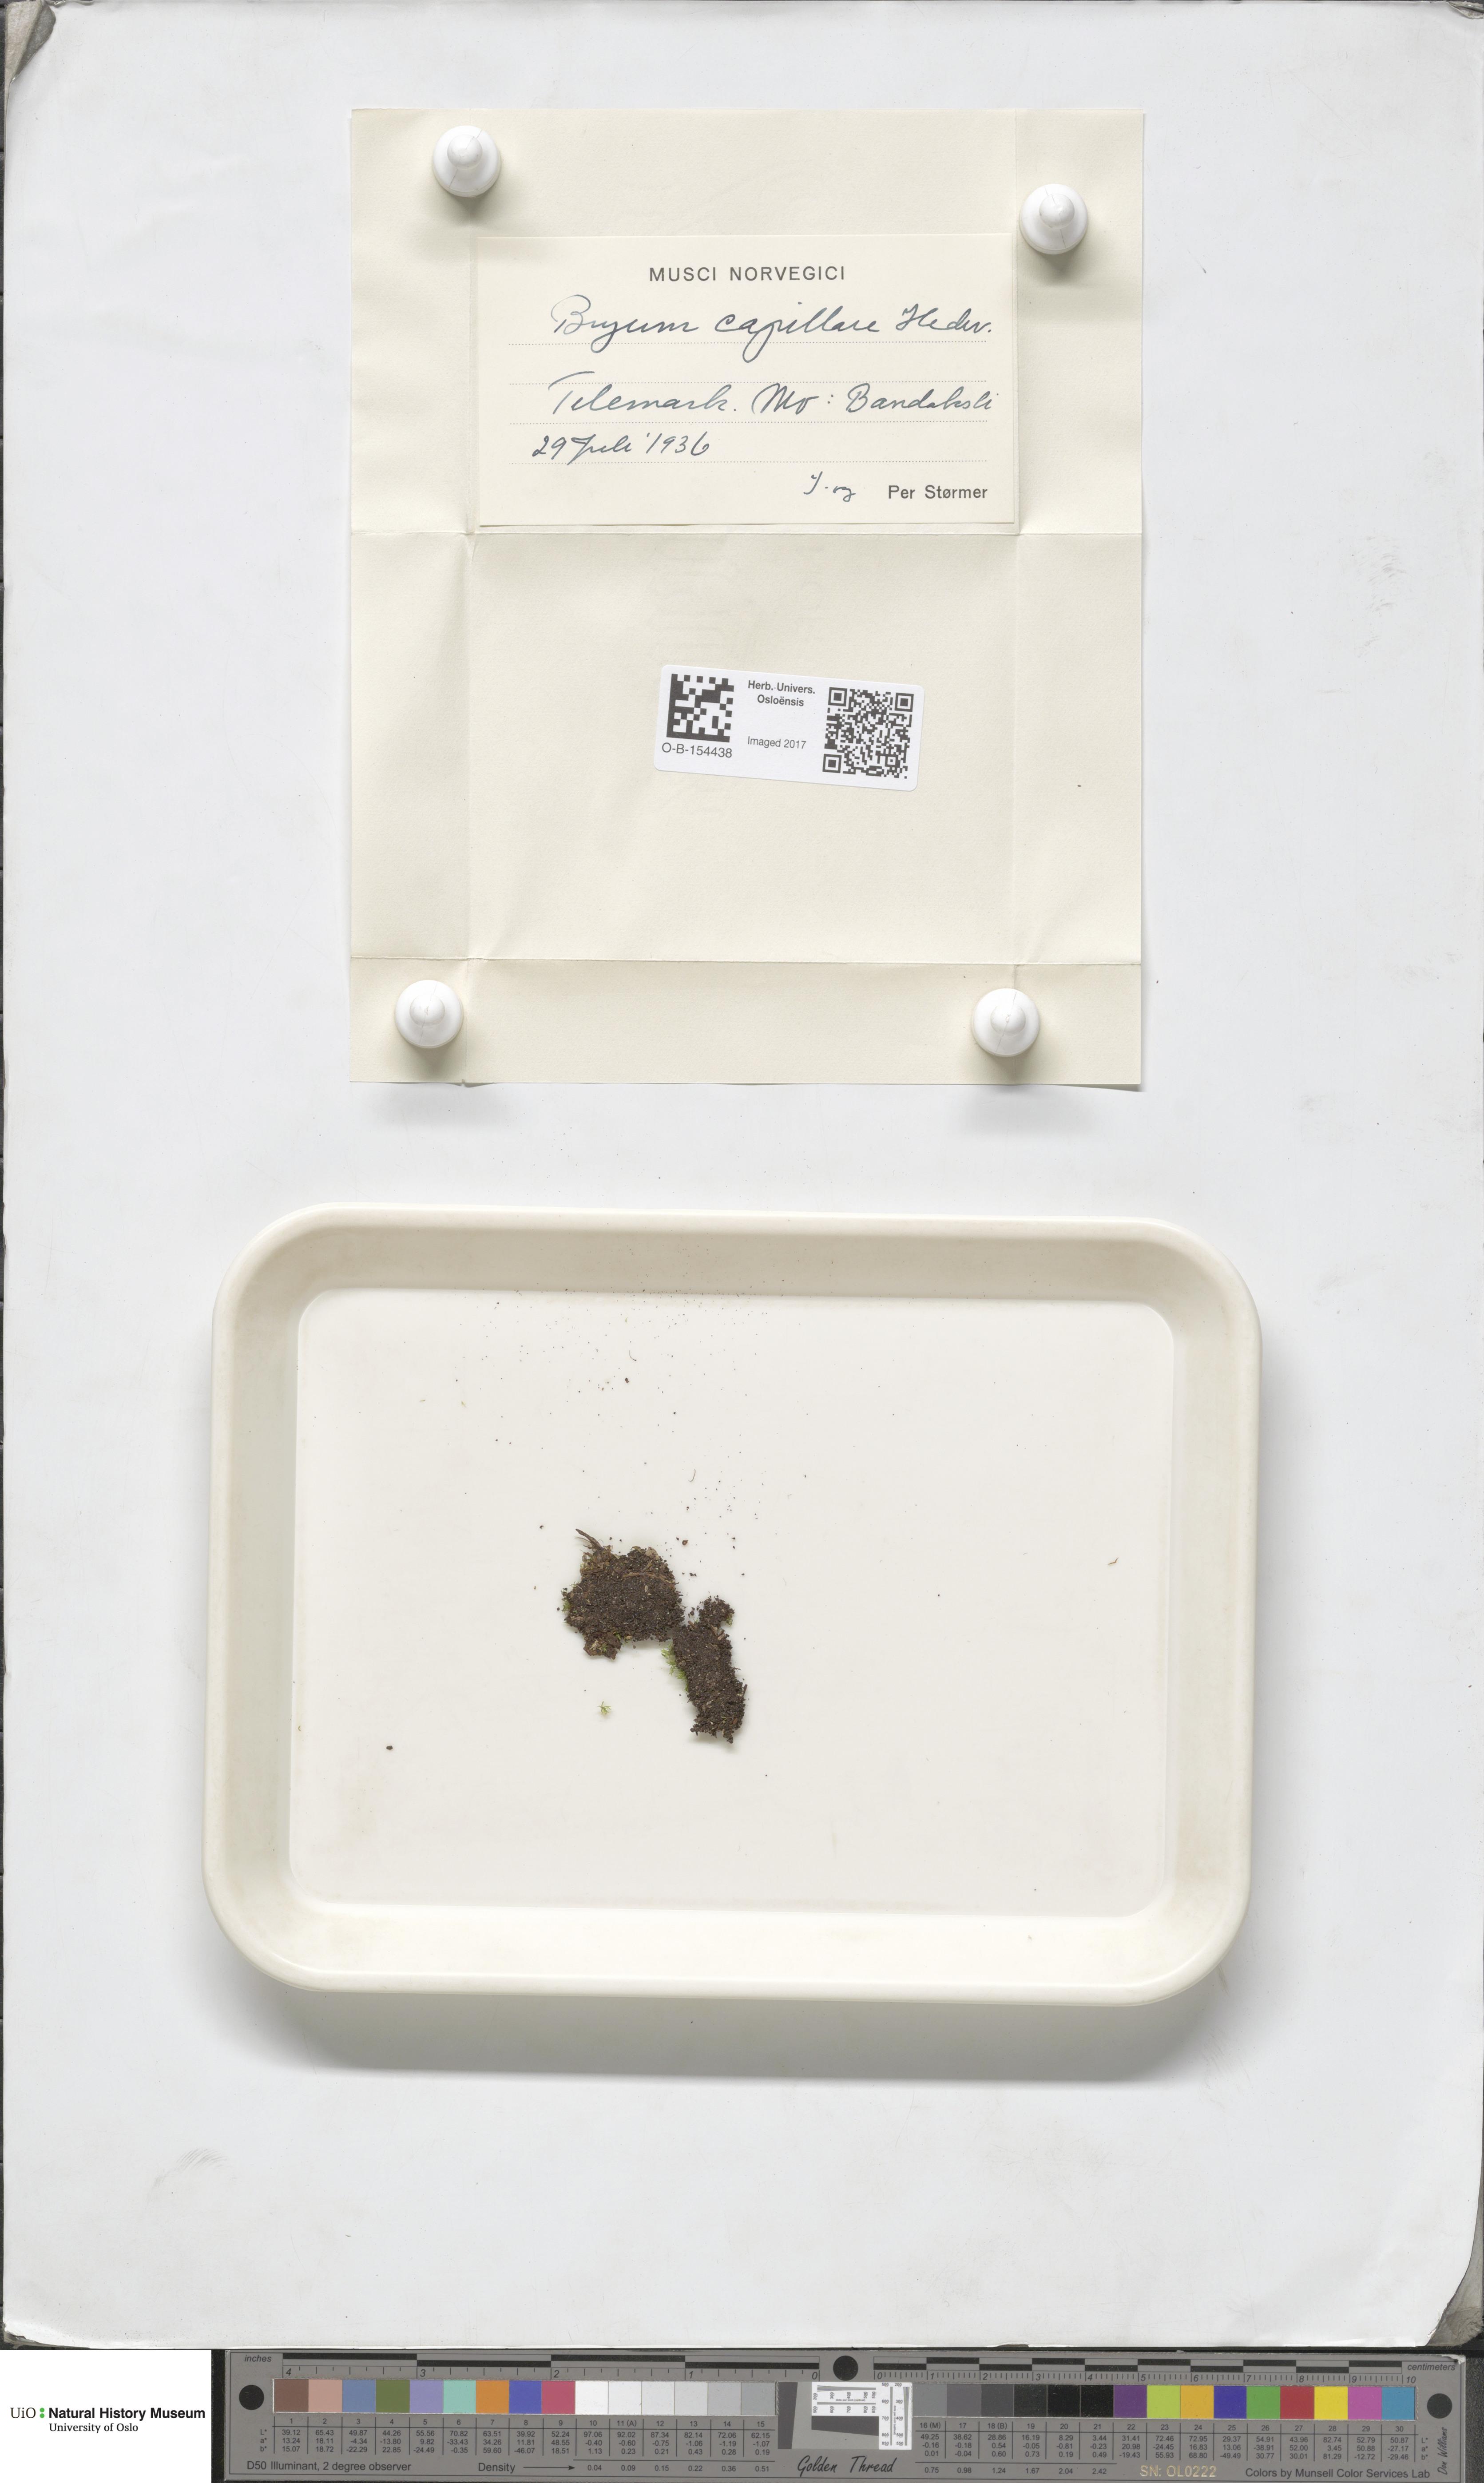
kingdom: Plantae
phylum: Bryophyta
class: Bryopsida
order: Bryales
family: Bryaceae
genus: Rosulabryum
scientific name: Rosulabryum capillare
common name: Capillary thread-moss
